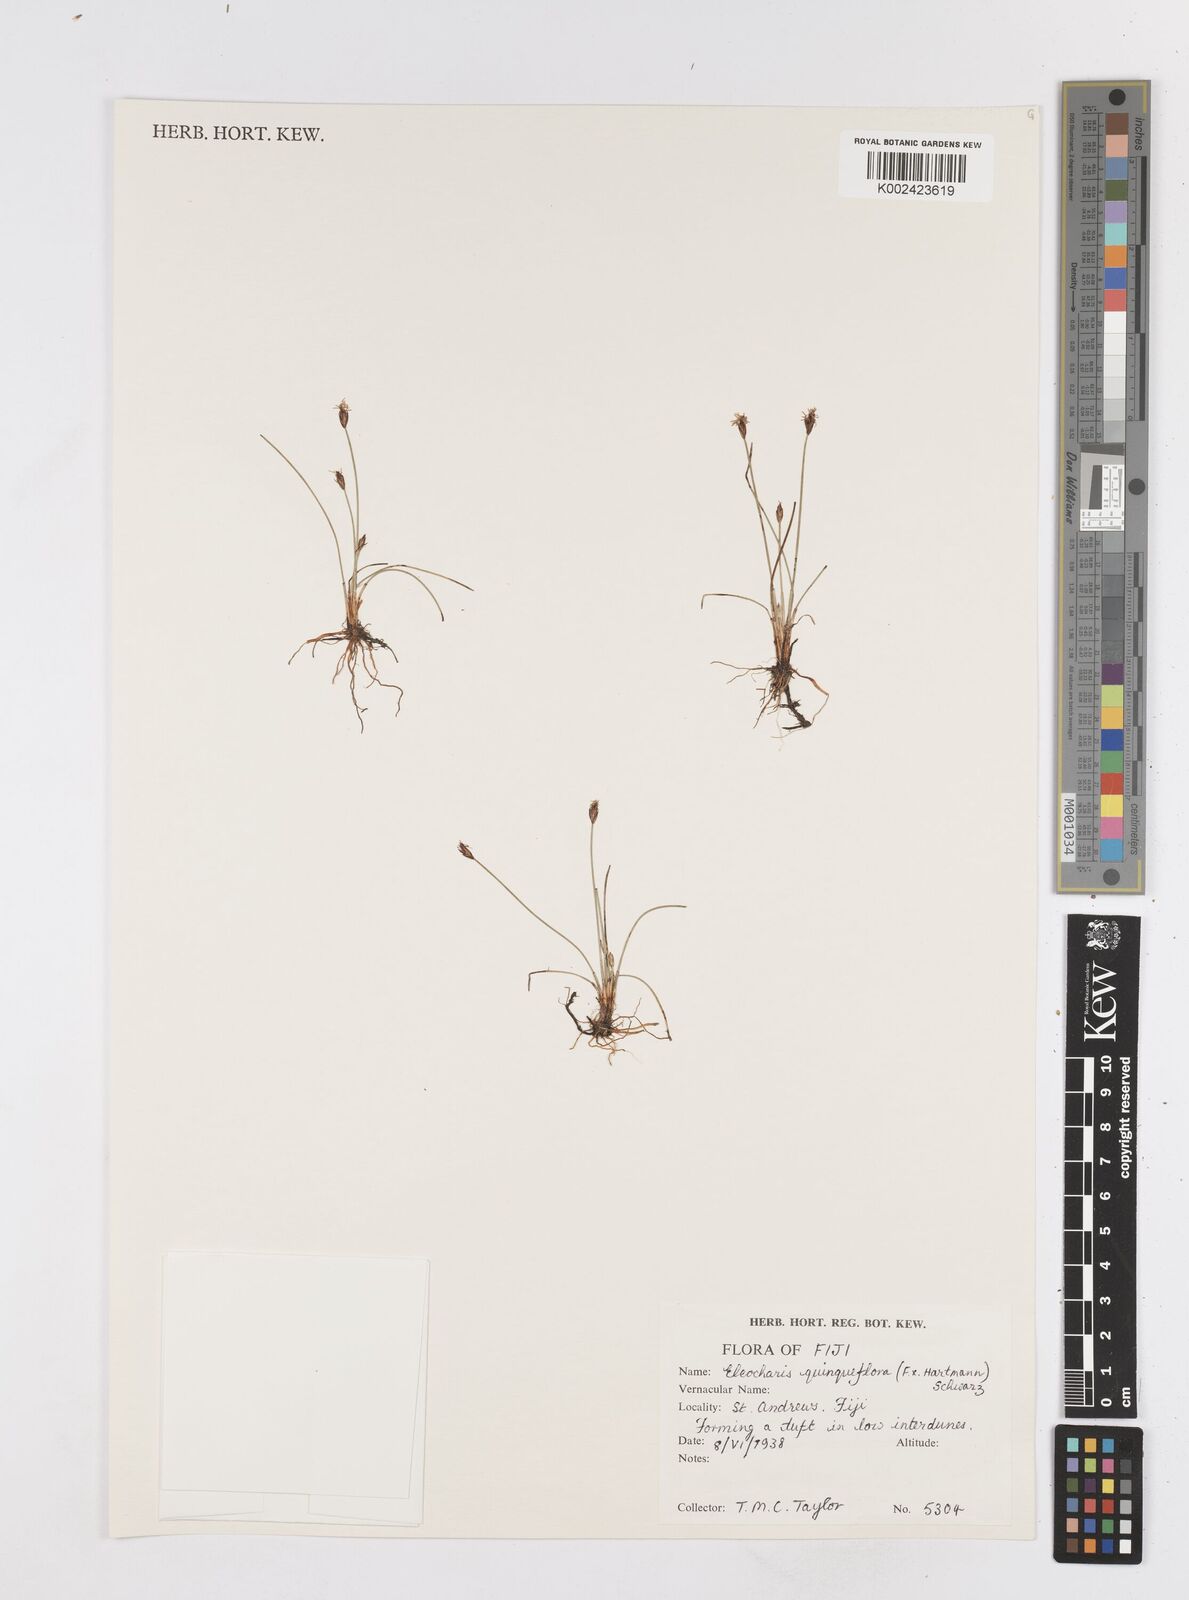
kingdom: Plantae
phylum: Tracheophyta
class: Liliopsida
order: Poales
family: Cyperaceae
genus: Eleocharis
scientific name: Eleocharis quinqueflora
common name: Few-flowered spike-rush
